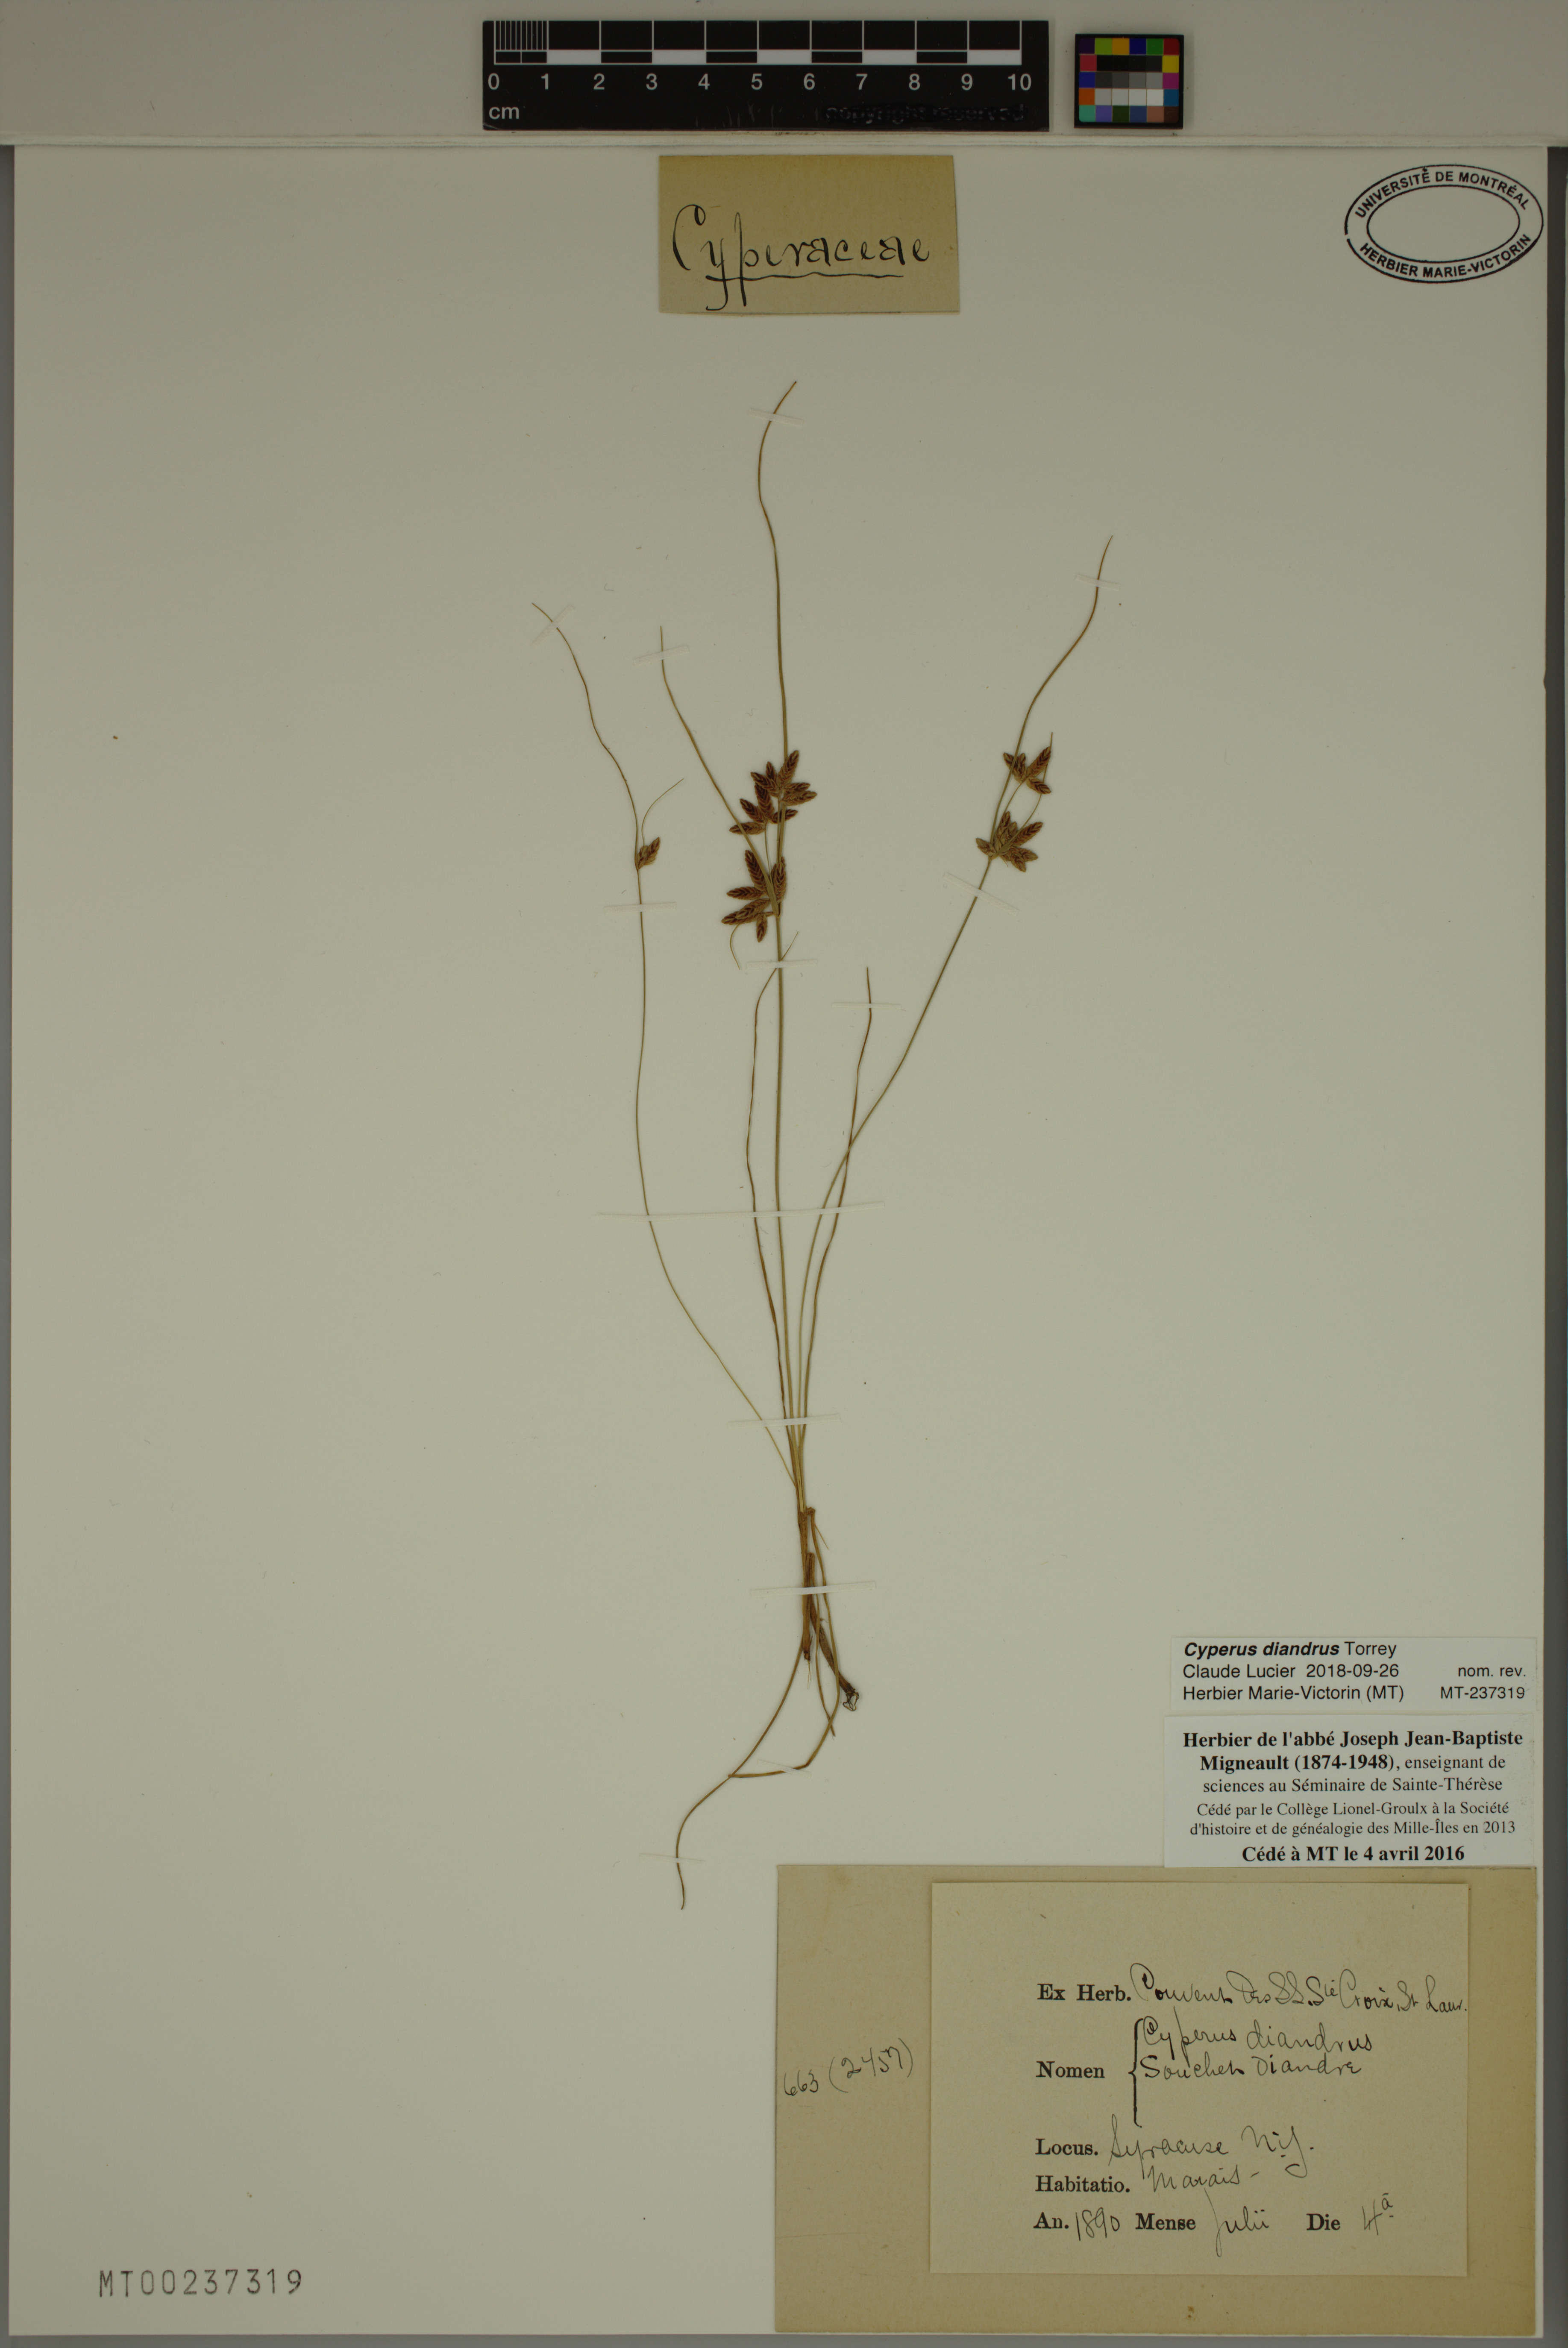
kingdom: Plantae
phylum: Tracheophyta
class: Liliopsida
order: Poales
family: Cyperaceae
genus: Cyperus
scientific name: Cyperus diandrus
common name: Low cyperus
